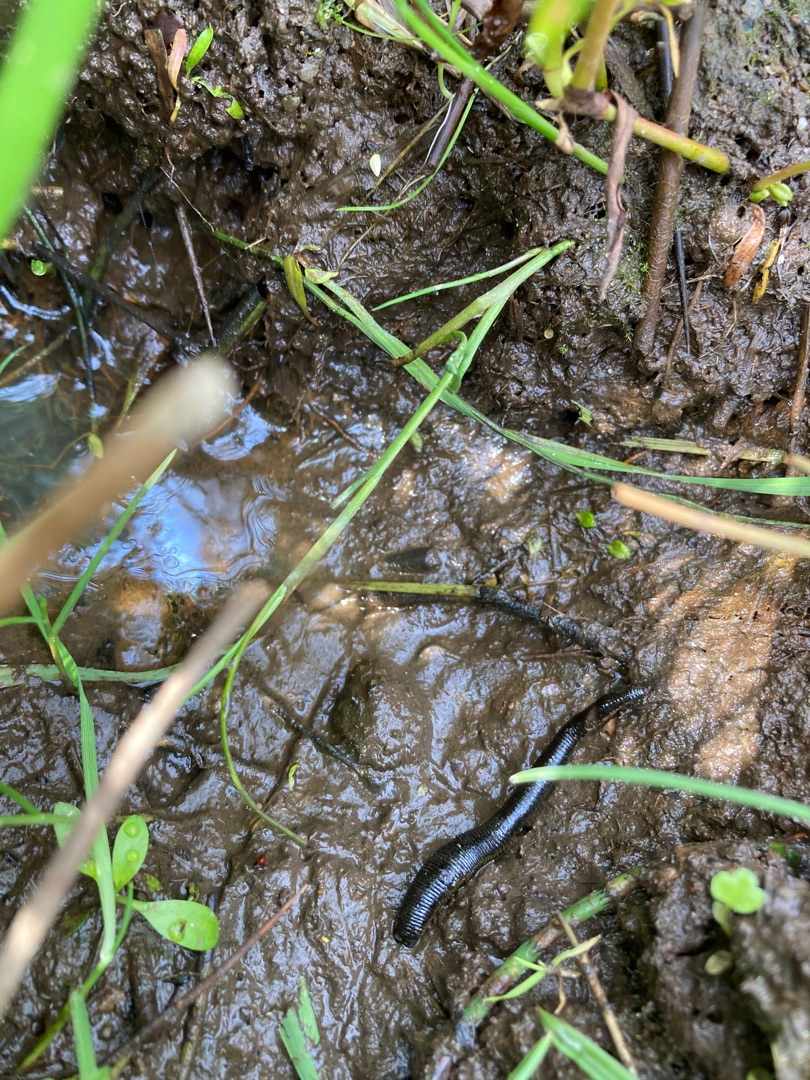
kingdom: Animalia
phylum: Annelida
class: Clitellata
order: Arhynchobdellida
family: Haemopidae
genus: Haemopis
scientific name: Haemopis sanguisuga
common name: Hesteigle
